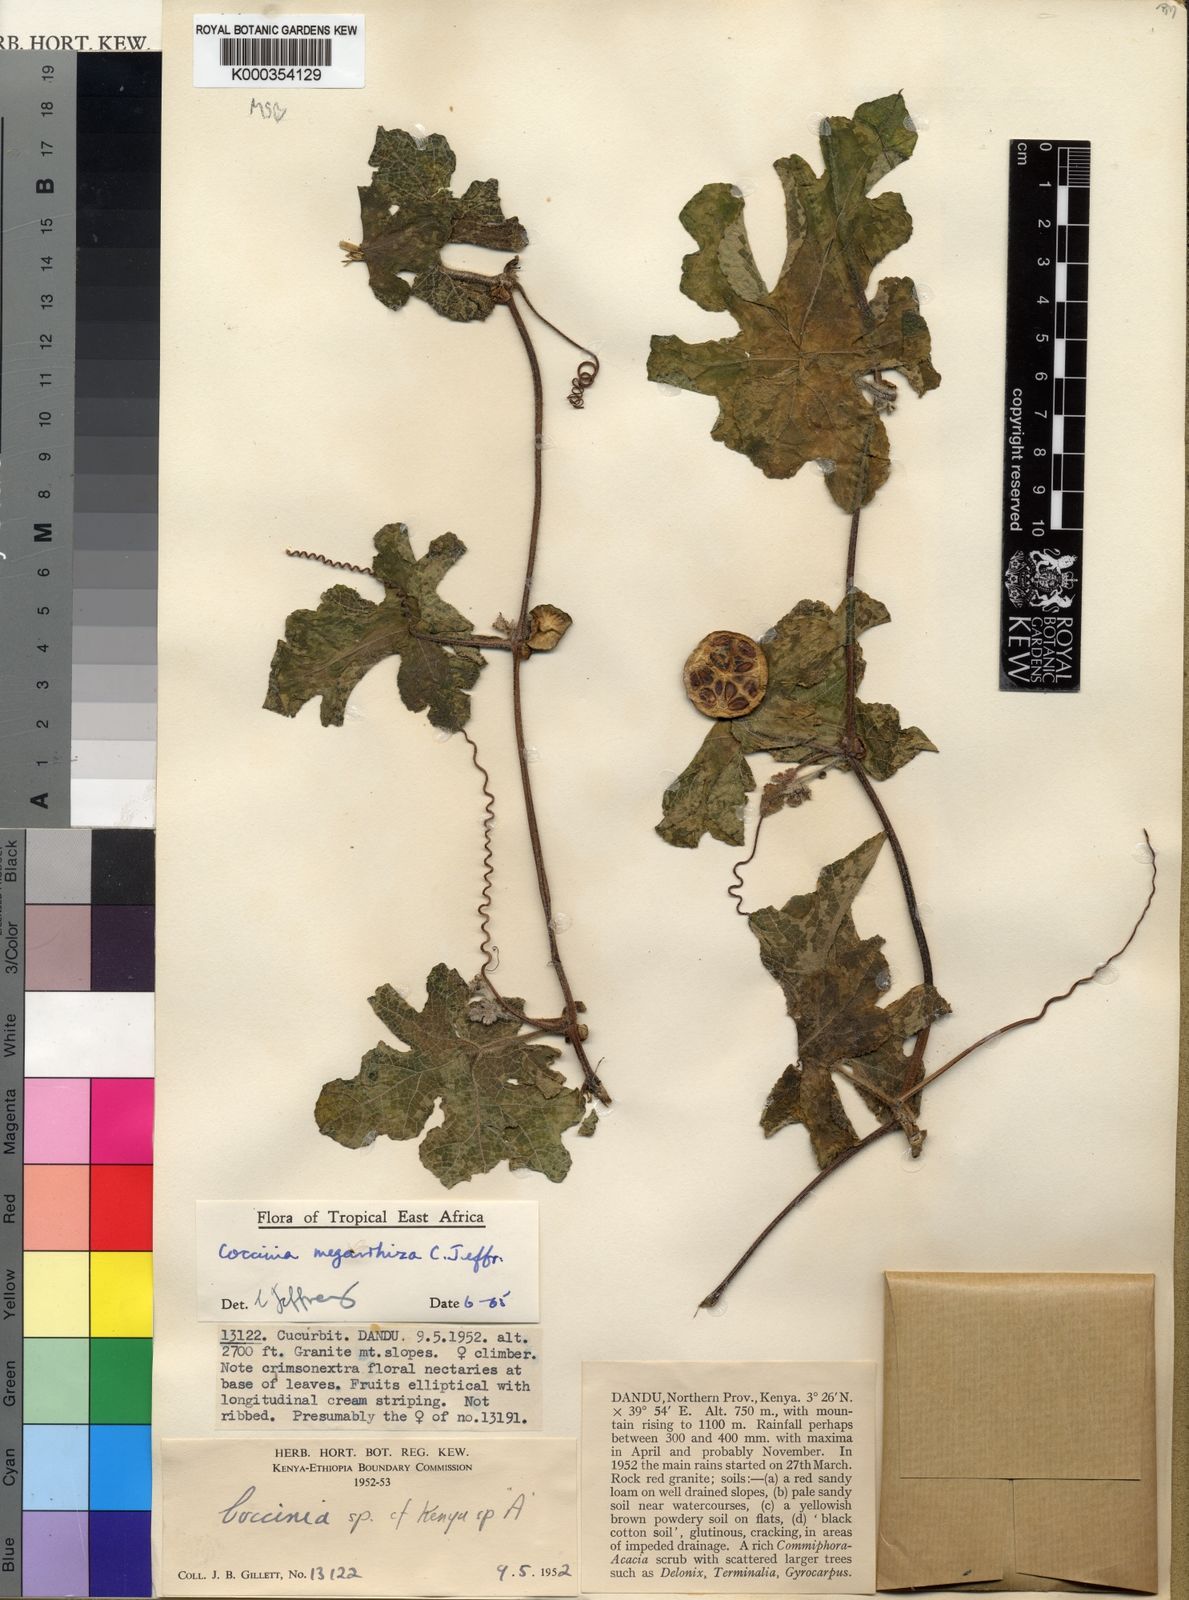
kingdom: Plantae
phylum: Tracheophyta
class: Magnoliopsida
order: Cucurbitales
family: Cucurbitaceae
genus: Coccinia
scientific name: Coccinia megarrhiza
